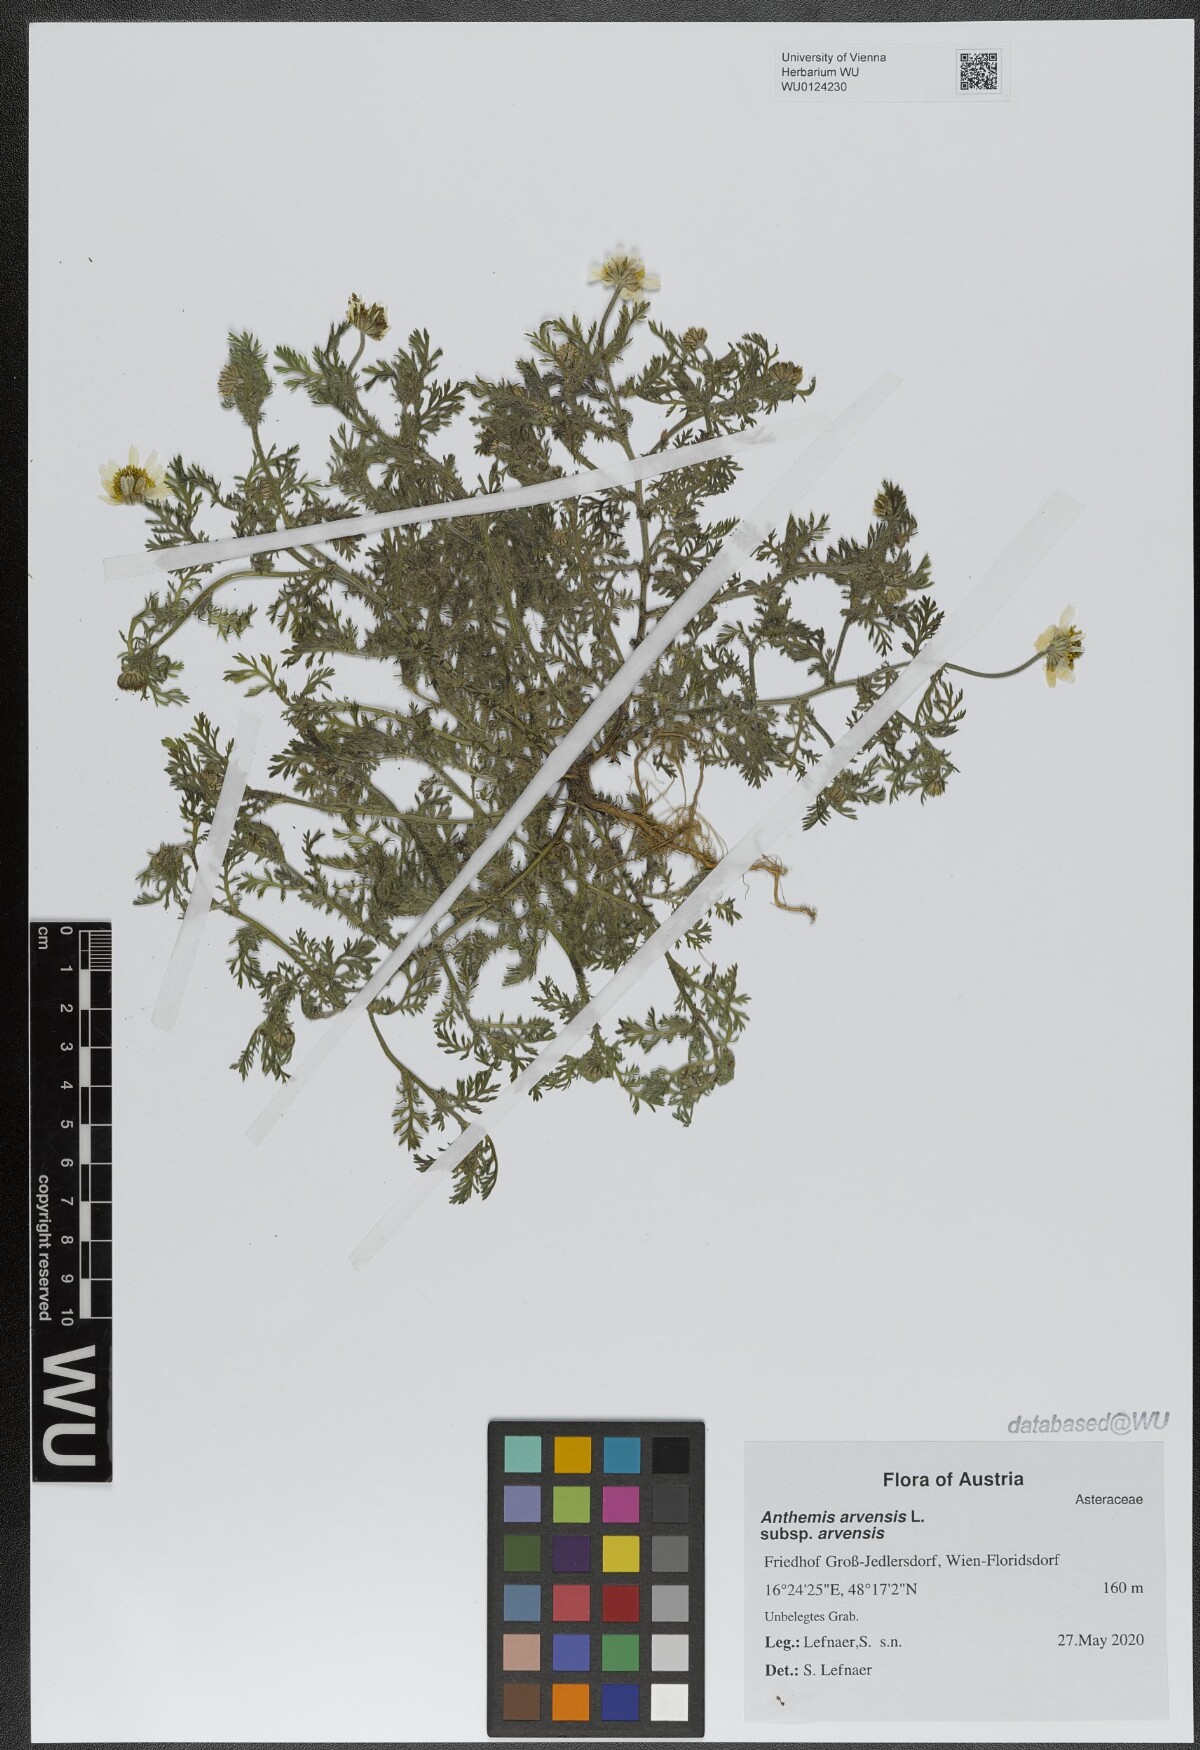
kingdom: Plantae
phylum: Tracheophyta
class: Magnoliopsida
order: Asterales
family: Asteraceae
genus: Anthemis
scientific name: Anthemis arvensis
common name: Corn chamomile
